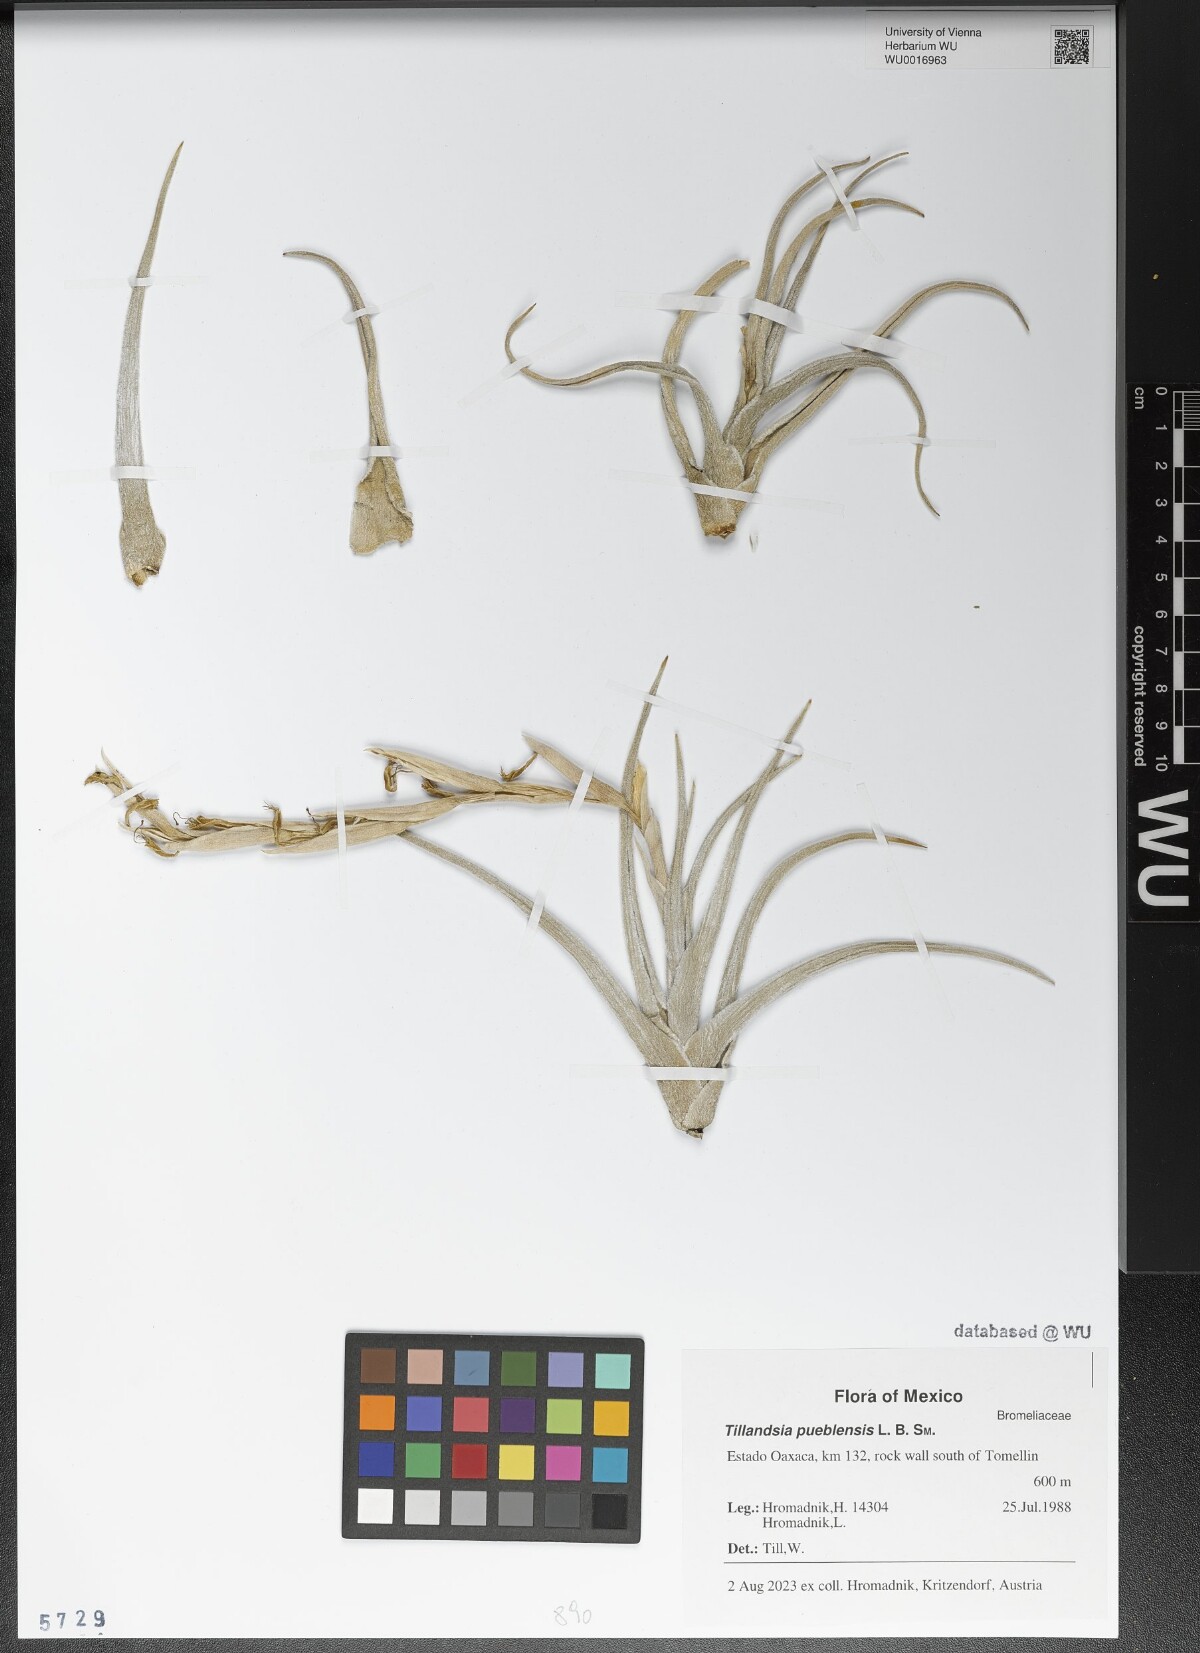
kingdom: Plantae
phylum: Tracheophyta
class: Liliopsida
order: Poales
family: Bromeliaceae
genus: Tillandsia
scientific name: Tillandsia pueblensis
